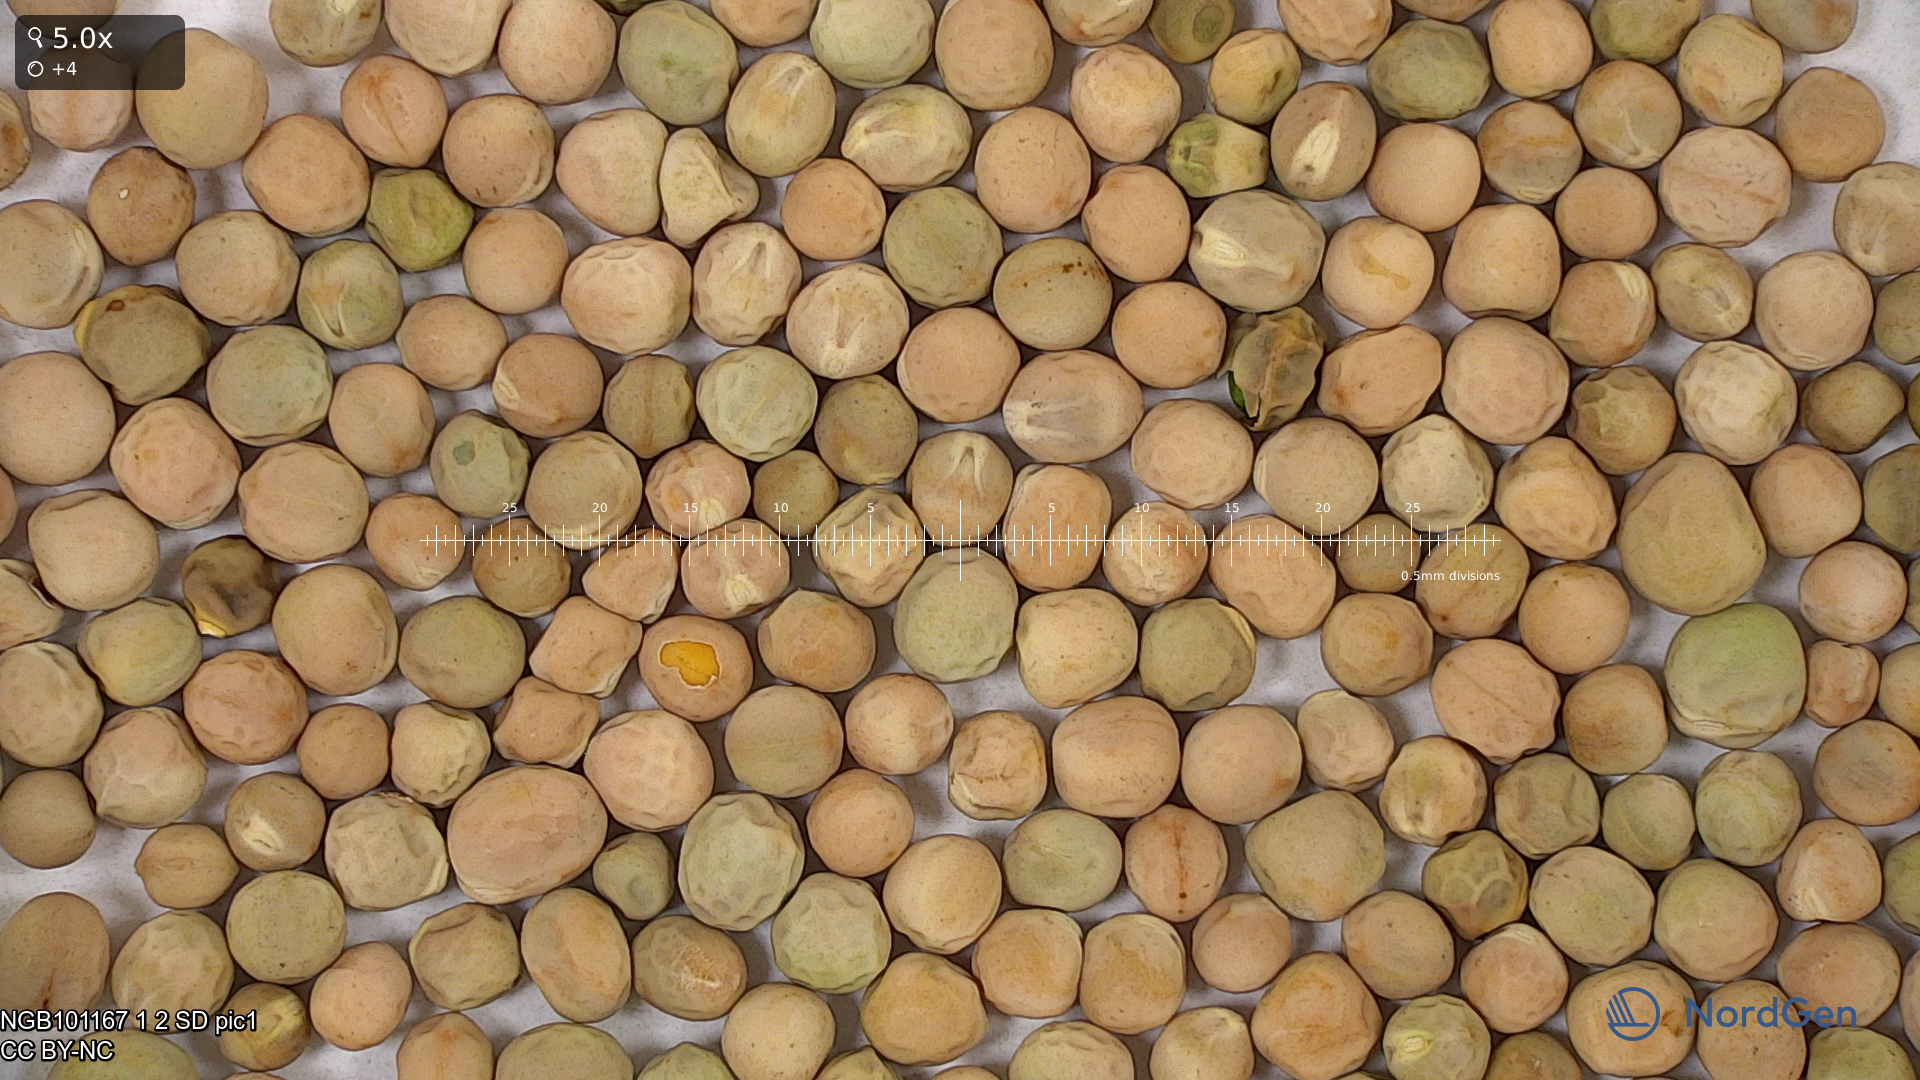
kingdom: Plantae
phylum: Tracheophyta
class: Magnoliopsida
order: Fabales
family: Fabaceae
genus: Lathyrus
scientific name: Lathyrus oleraceus
